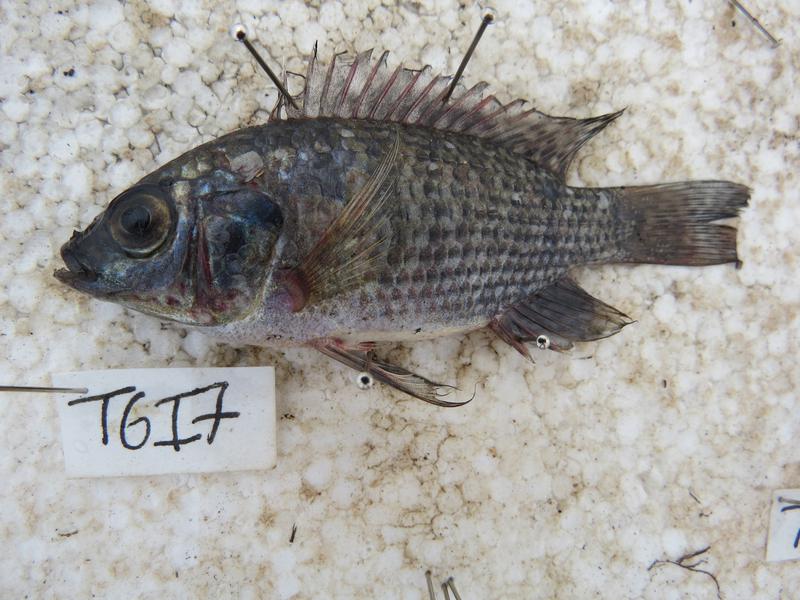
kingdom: Animalia
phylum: Chordata
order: Perciformes
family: Cichlidae
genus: Oreochromis
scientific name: Oreochromis leucostictus
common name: Blue spotted tilapia
